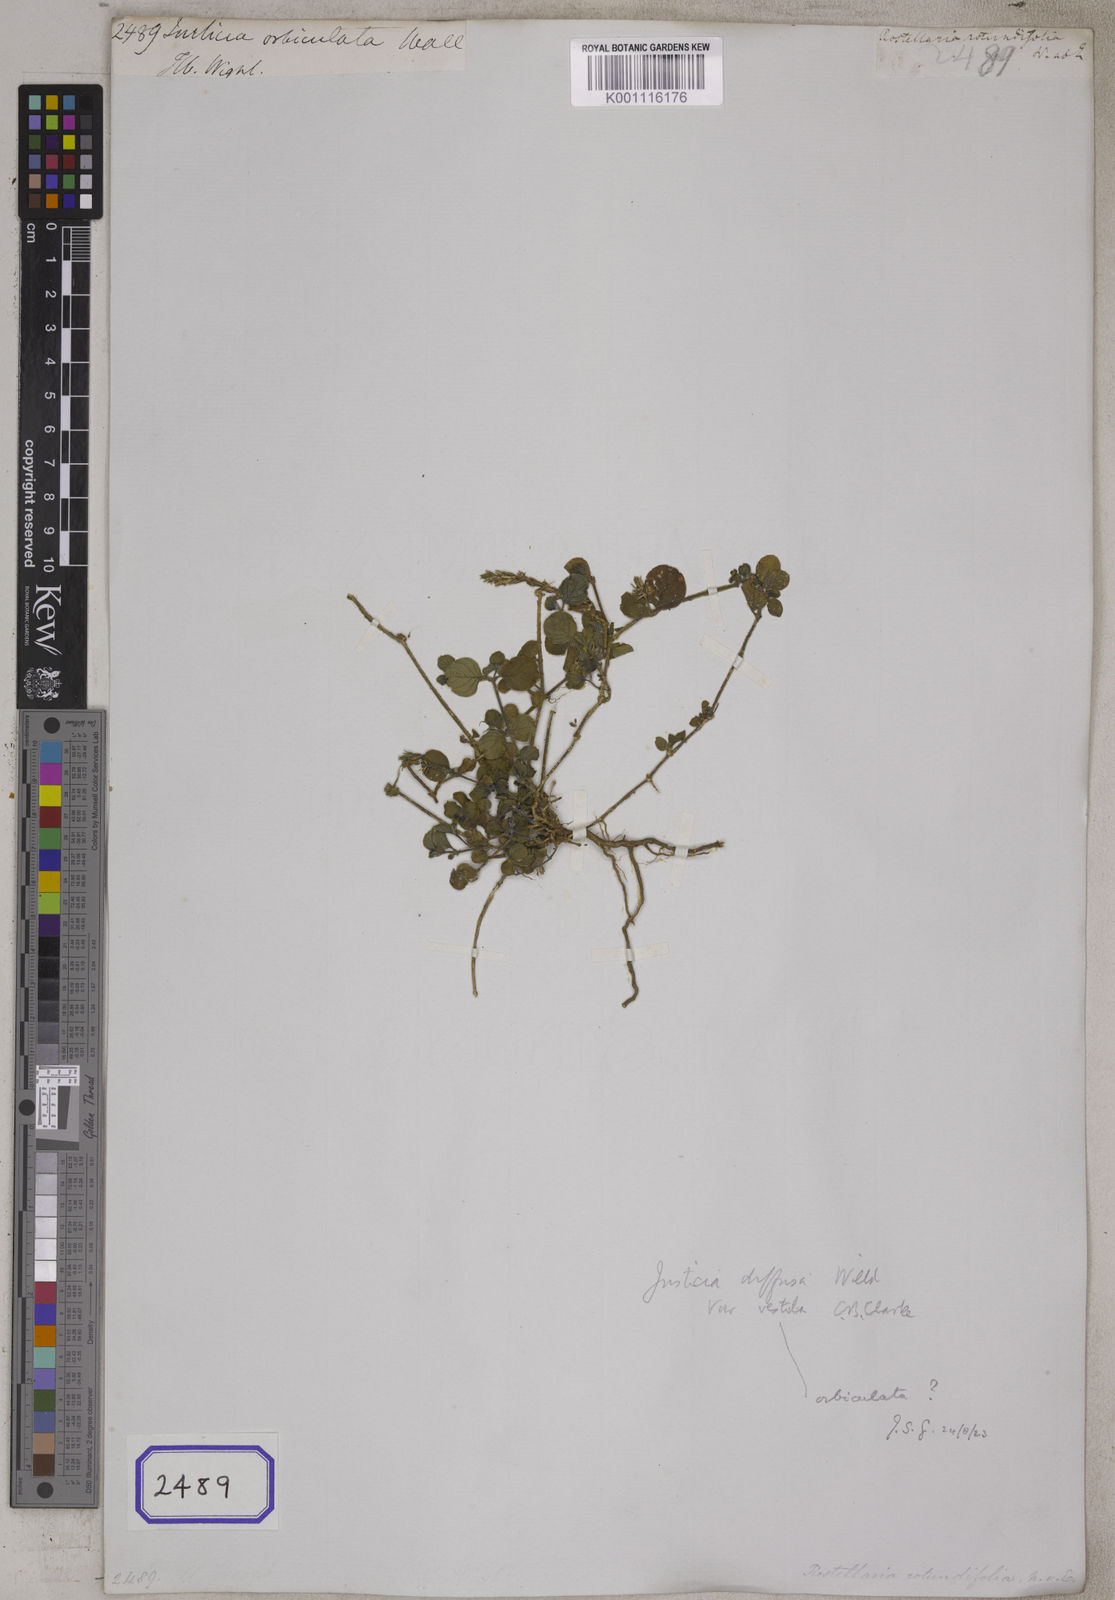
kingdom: Plantae
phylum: Tracheophyta
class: Magnoliopsida
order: Lamiales
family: Acanthaceae
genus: Rostellularia
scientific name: Rostellularia diffusa
